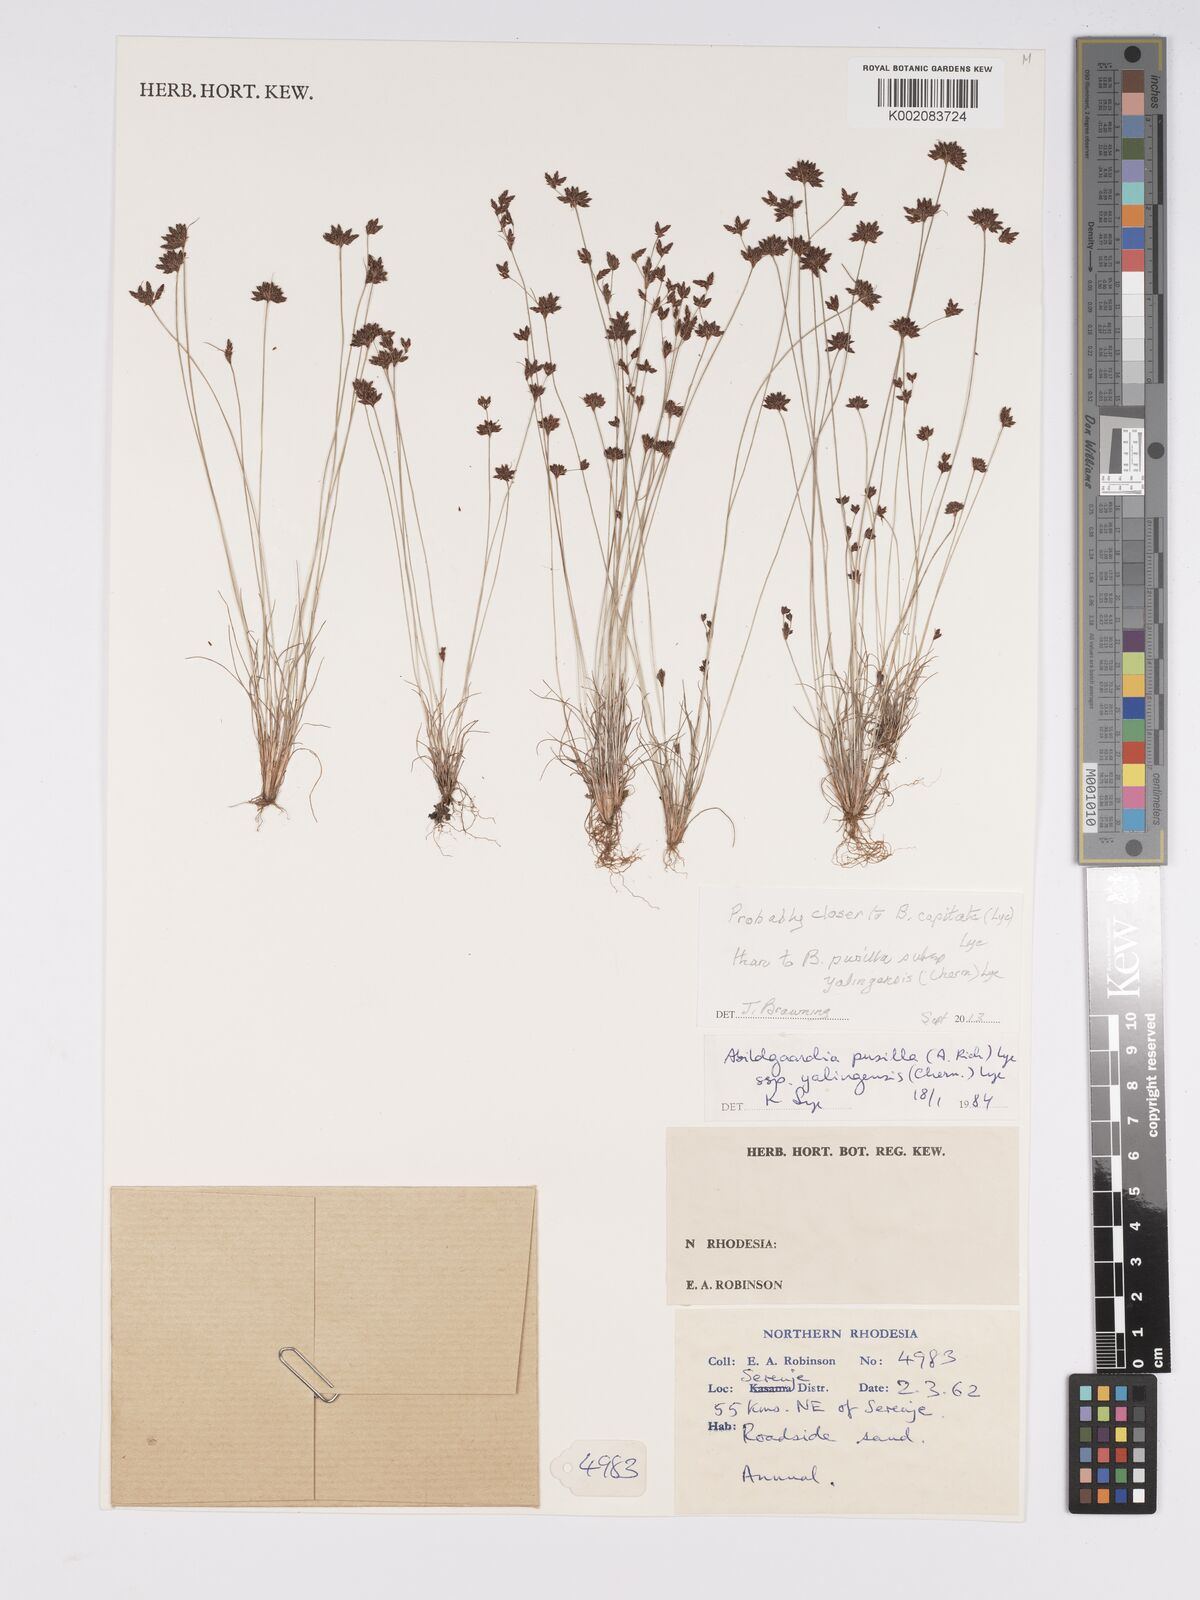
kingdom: Plantae
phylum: Tracheophyta
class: Liliopsida
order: Poales
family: Cyperaceae
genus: Bulbostylis
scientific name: Bulbostylis capitata
